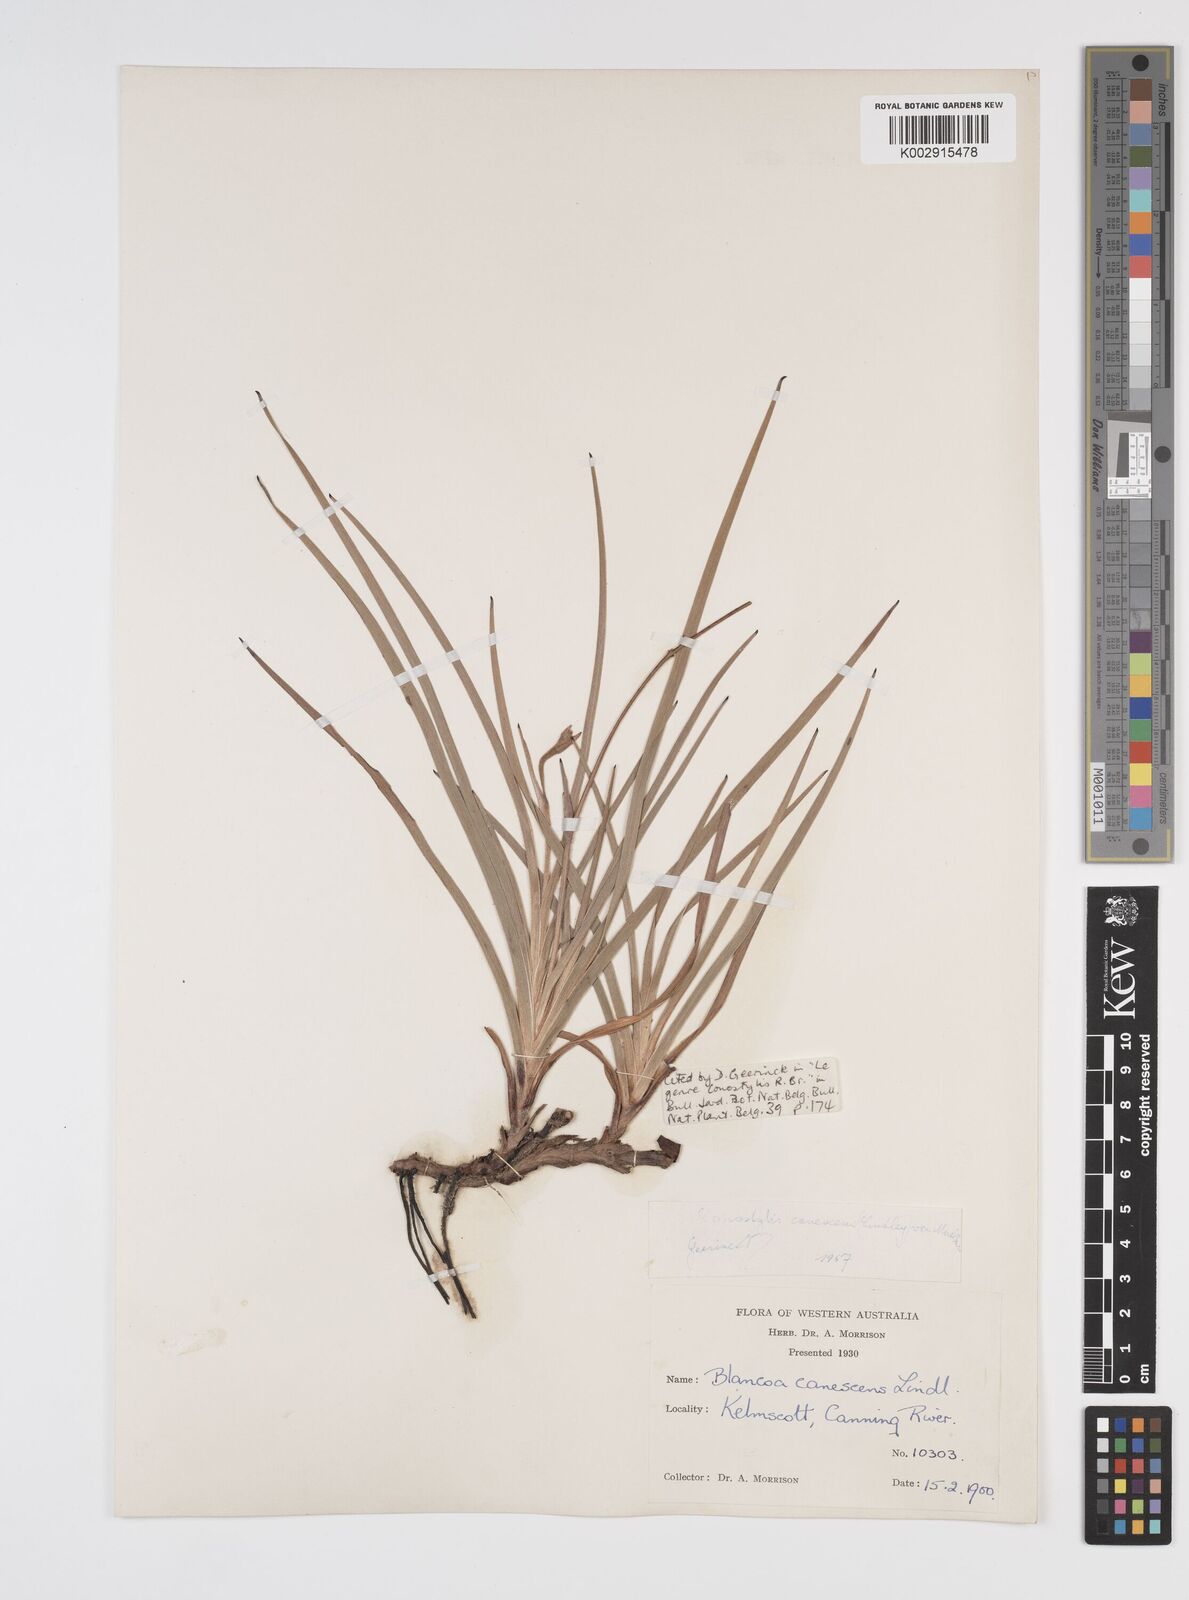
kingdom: Plantae
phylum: Tracheophyta
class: Liliopsida
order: Commelinales
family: Haemodoraceae
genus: Blancoa
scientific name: Blancoa canescens
